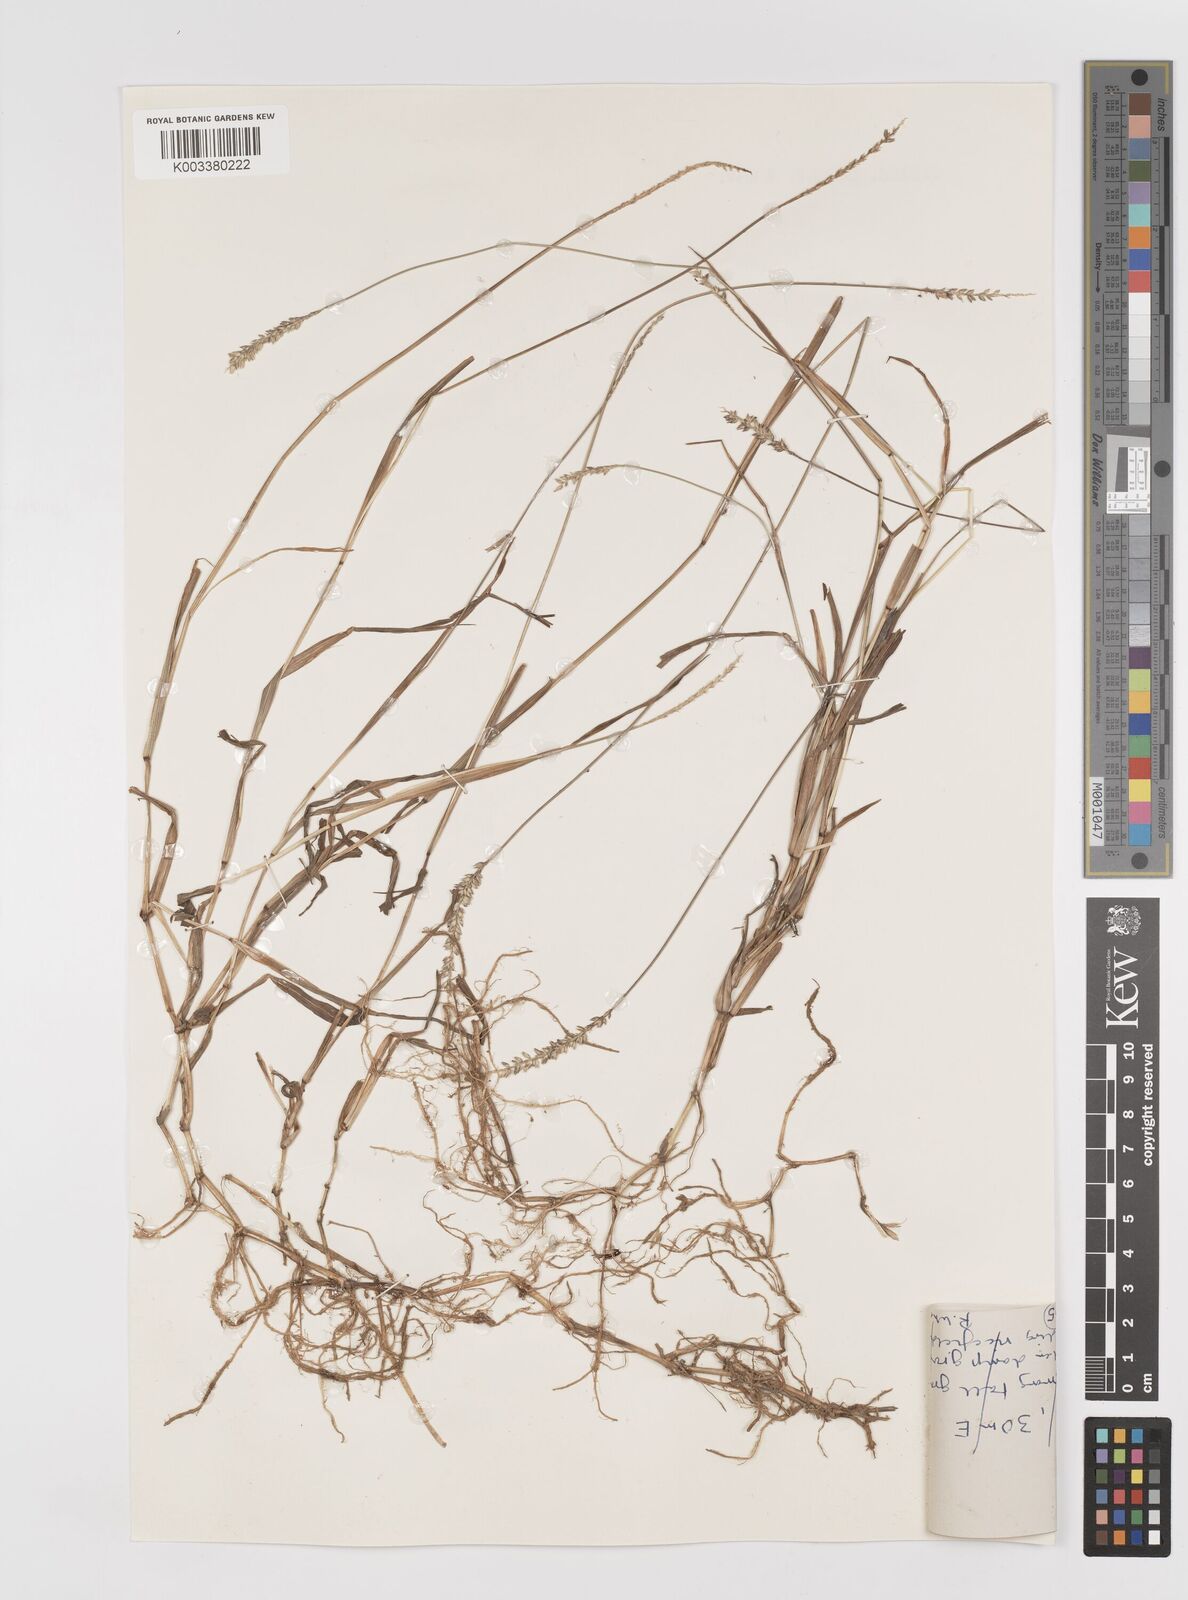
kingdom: Plantae
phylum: Tracheophyta
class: Liliopsida
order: Poales
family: Poaceae
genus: Sacciolepis
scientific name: Sacciolepis indica
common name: Glenwoodgrass
